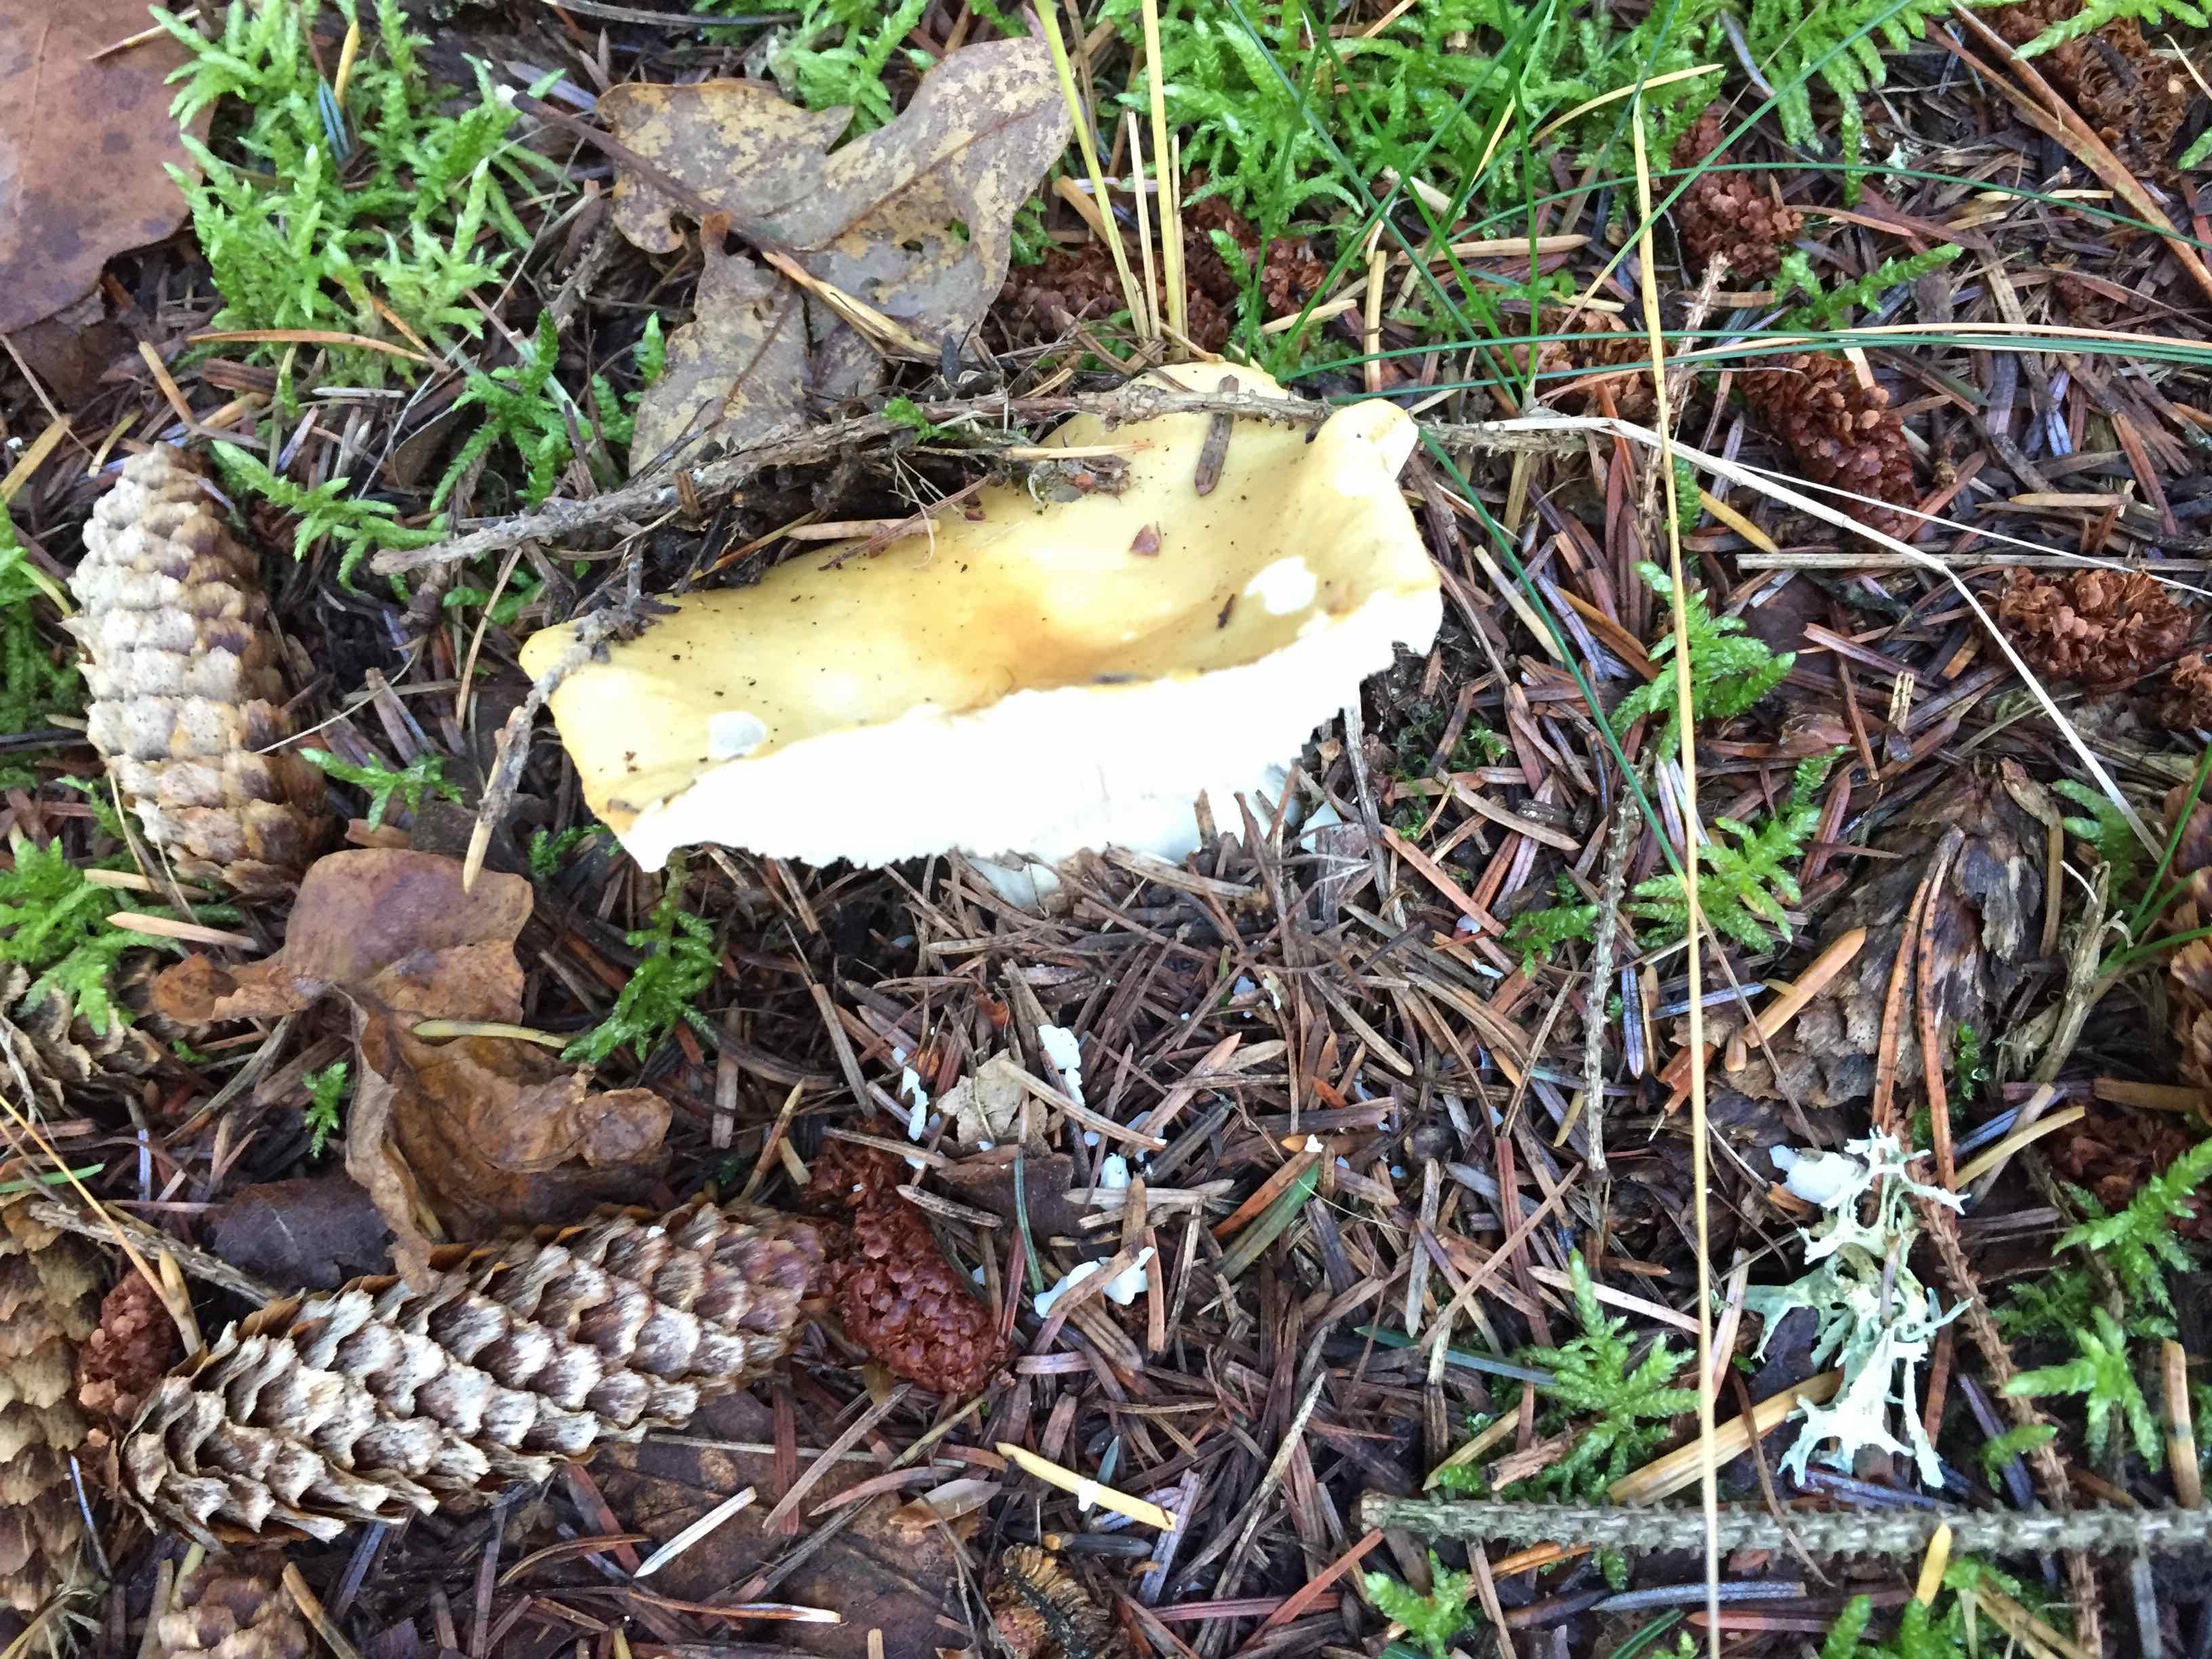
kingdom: Fungi
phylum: Basidiomycota
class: Agaricomycetes
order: Russulales
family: Russulaceae
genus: Russula
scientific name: Russula
